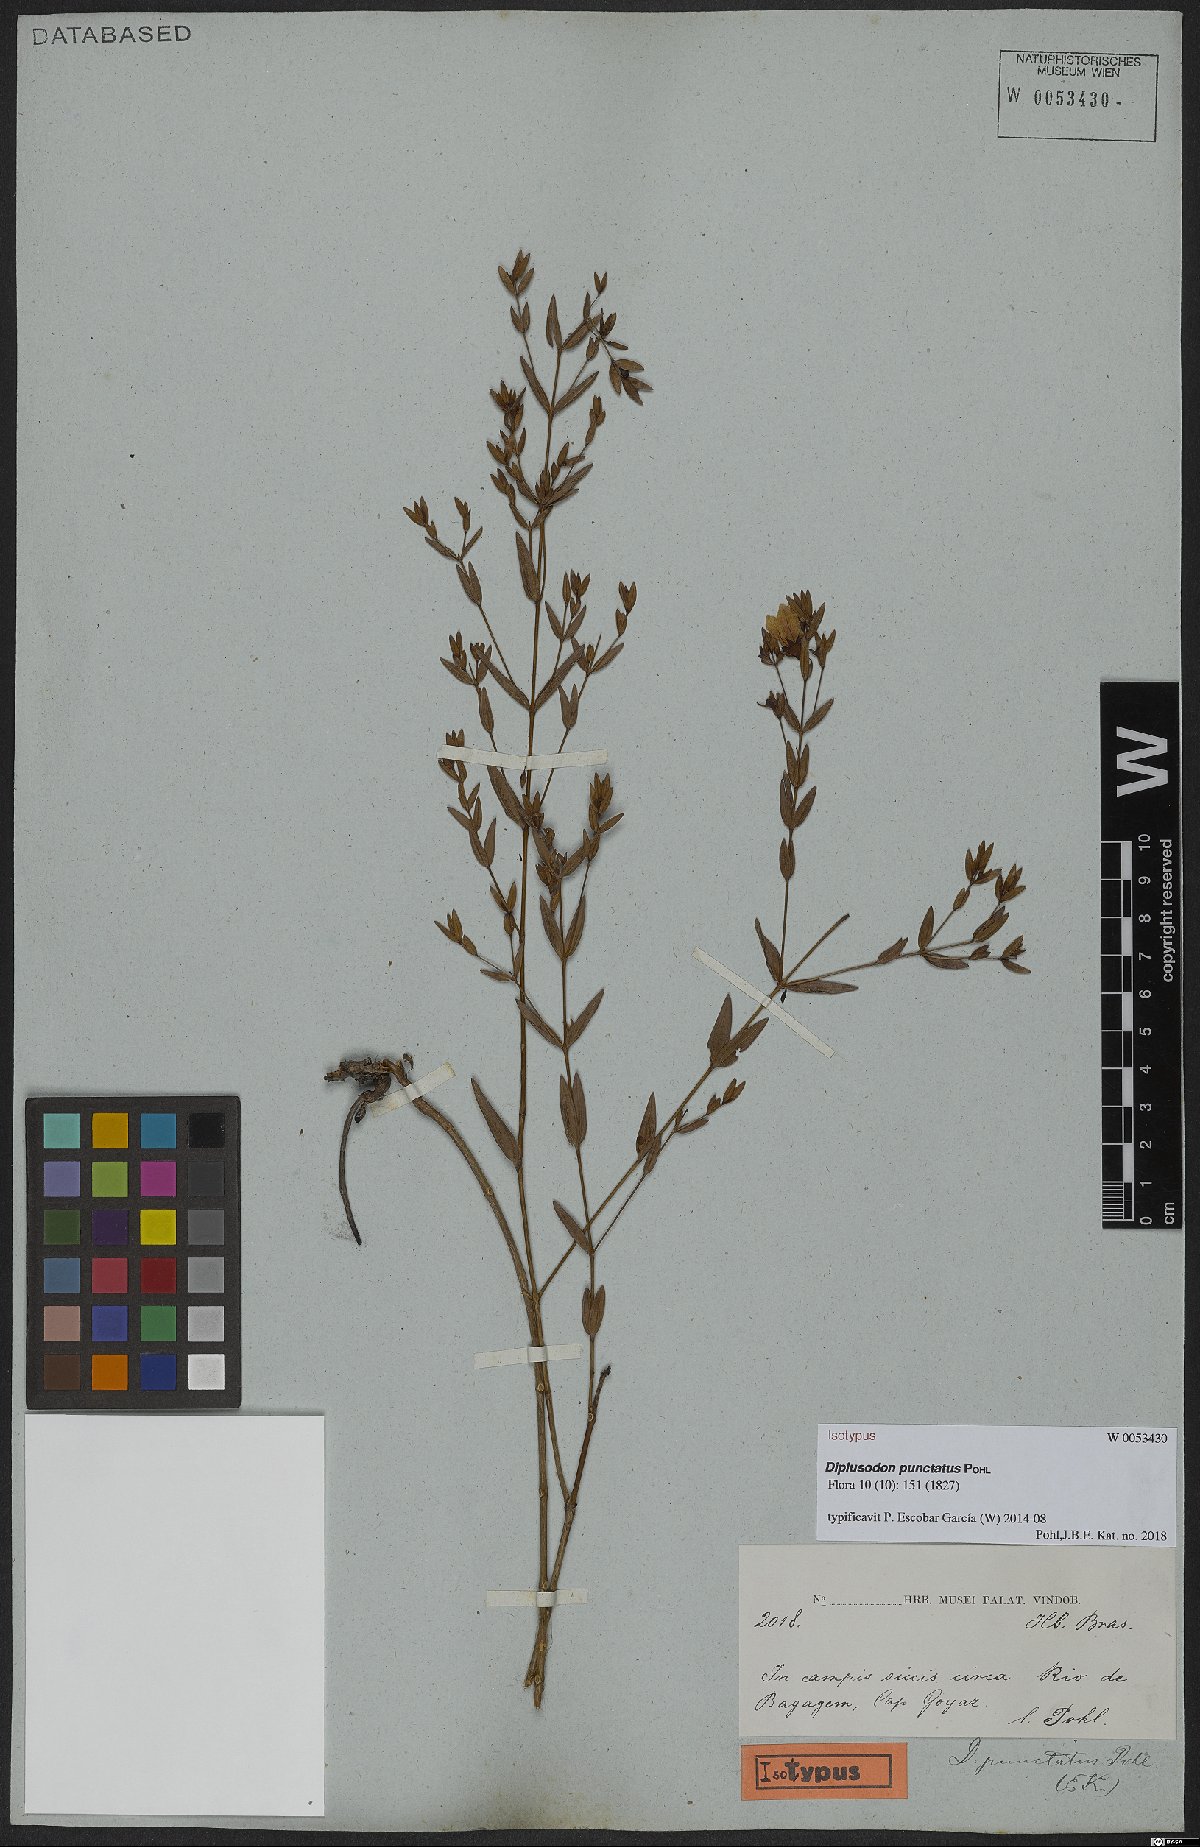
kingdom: Plantae
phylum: Tracheophyta
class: Magnoliopsida
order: Myrtales
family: Lythraceae
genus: Diplusodon
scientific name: Diplusodon punctatus
